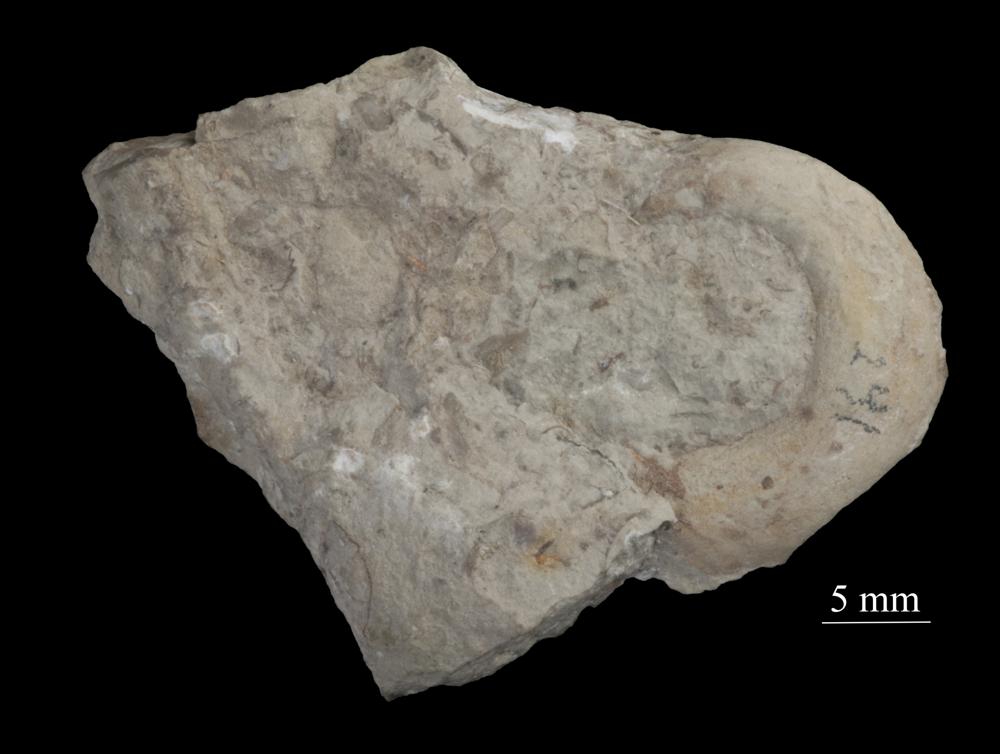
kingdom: Animalia
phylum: Mollusca
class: Gastropoda
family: Bellerophontidae
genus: Bellerophon
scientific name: Bellerophon contortus
